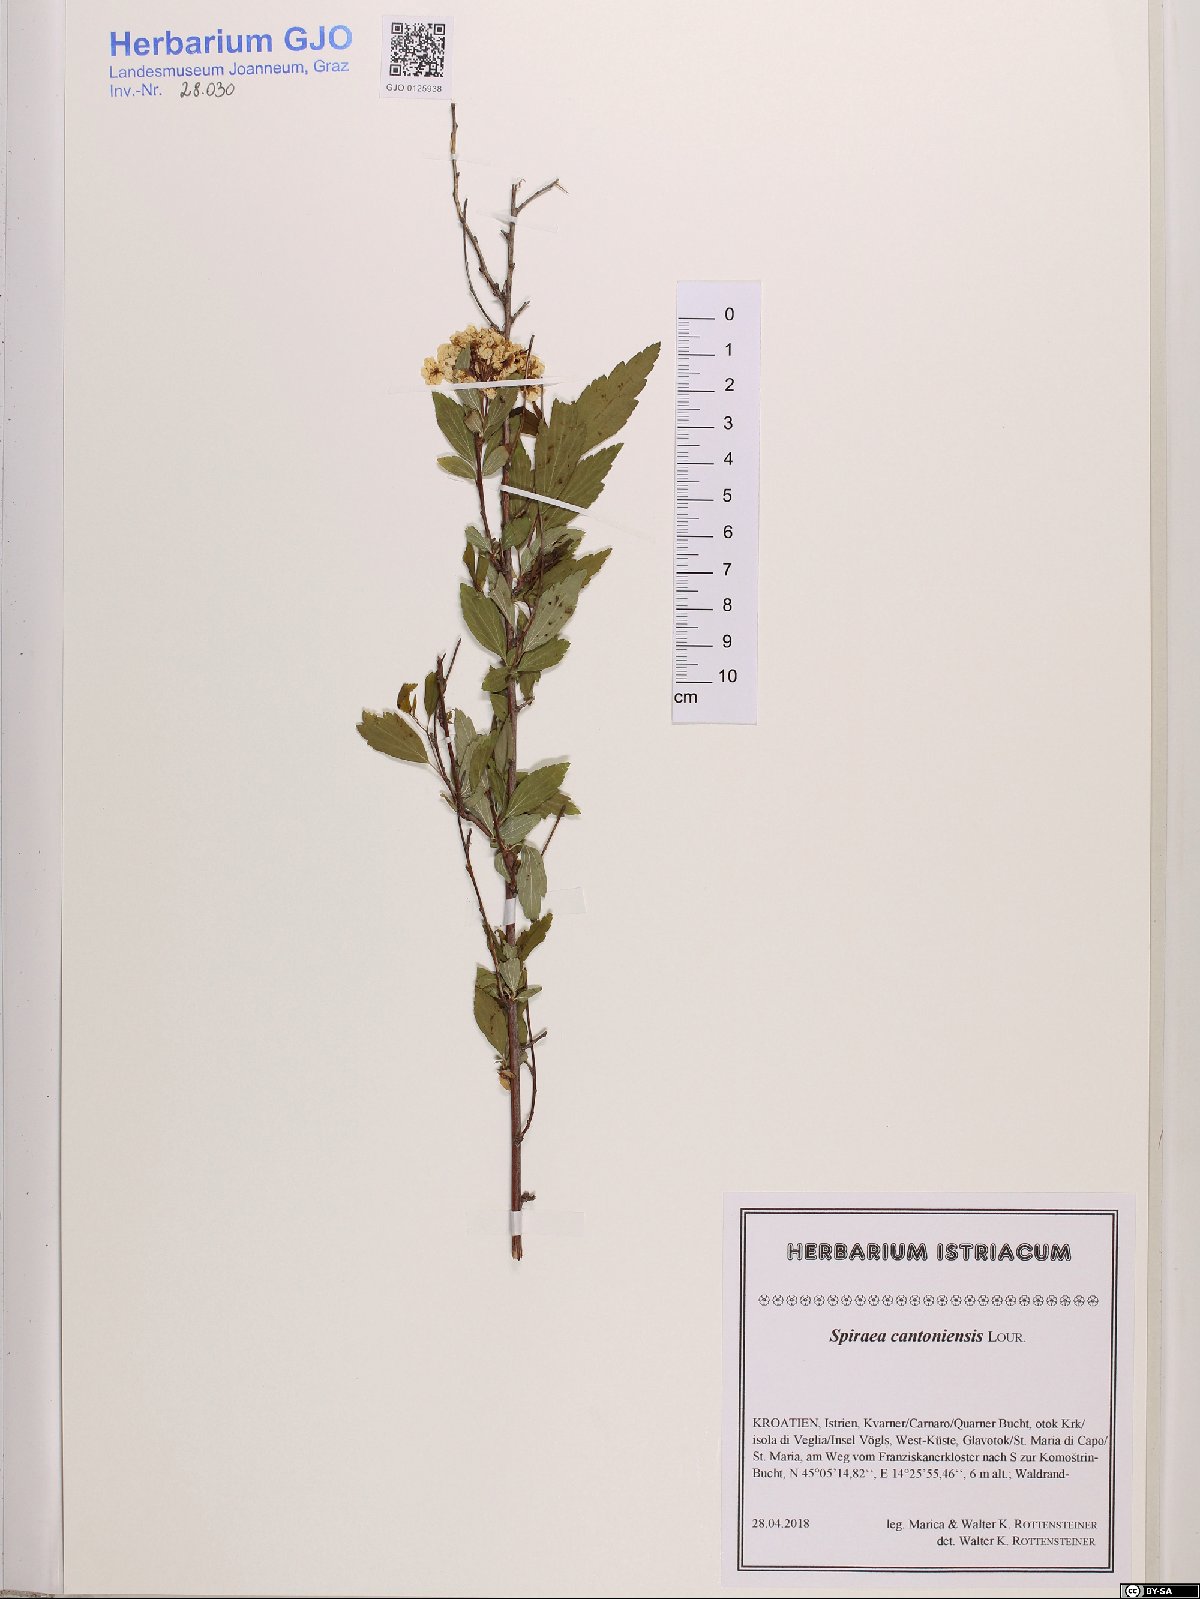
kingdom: Plantae
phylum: Tracheophyta
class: Magnoliopsida
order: Rosales
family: Rosaceae
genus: Spiraea
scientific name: Spiraea cantoniensis
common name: Reeves' meadowsweet
